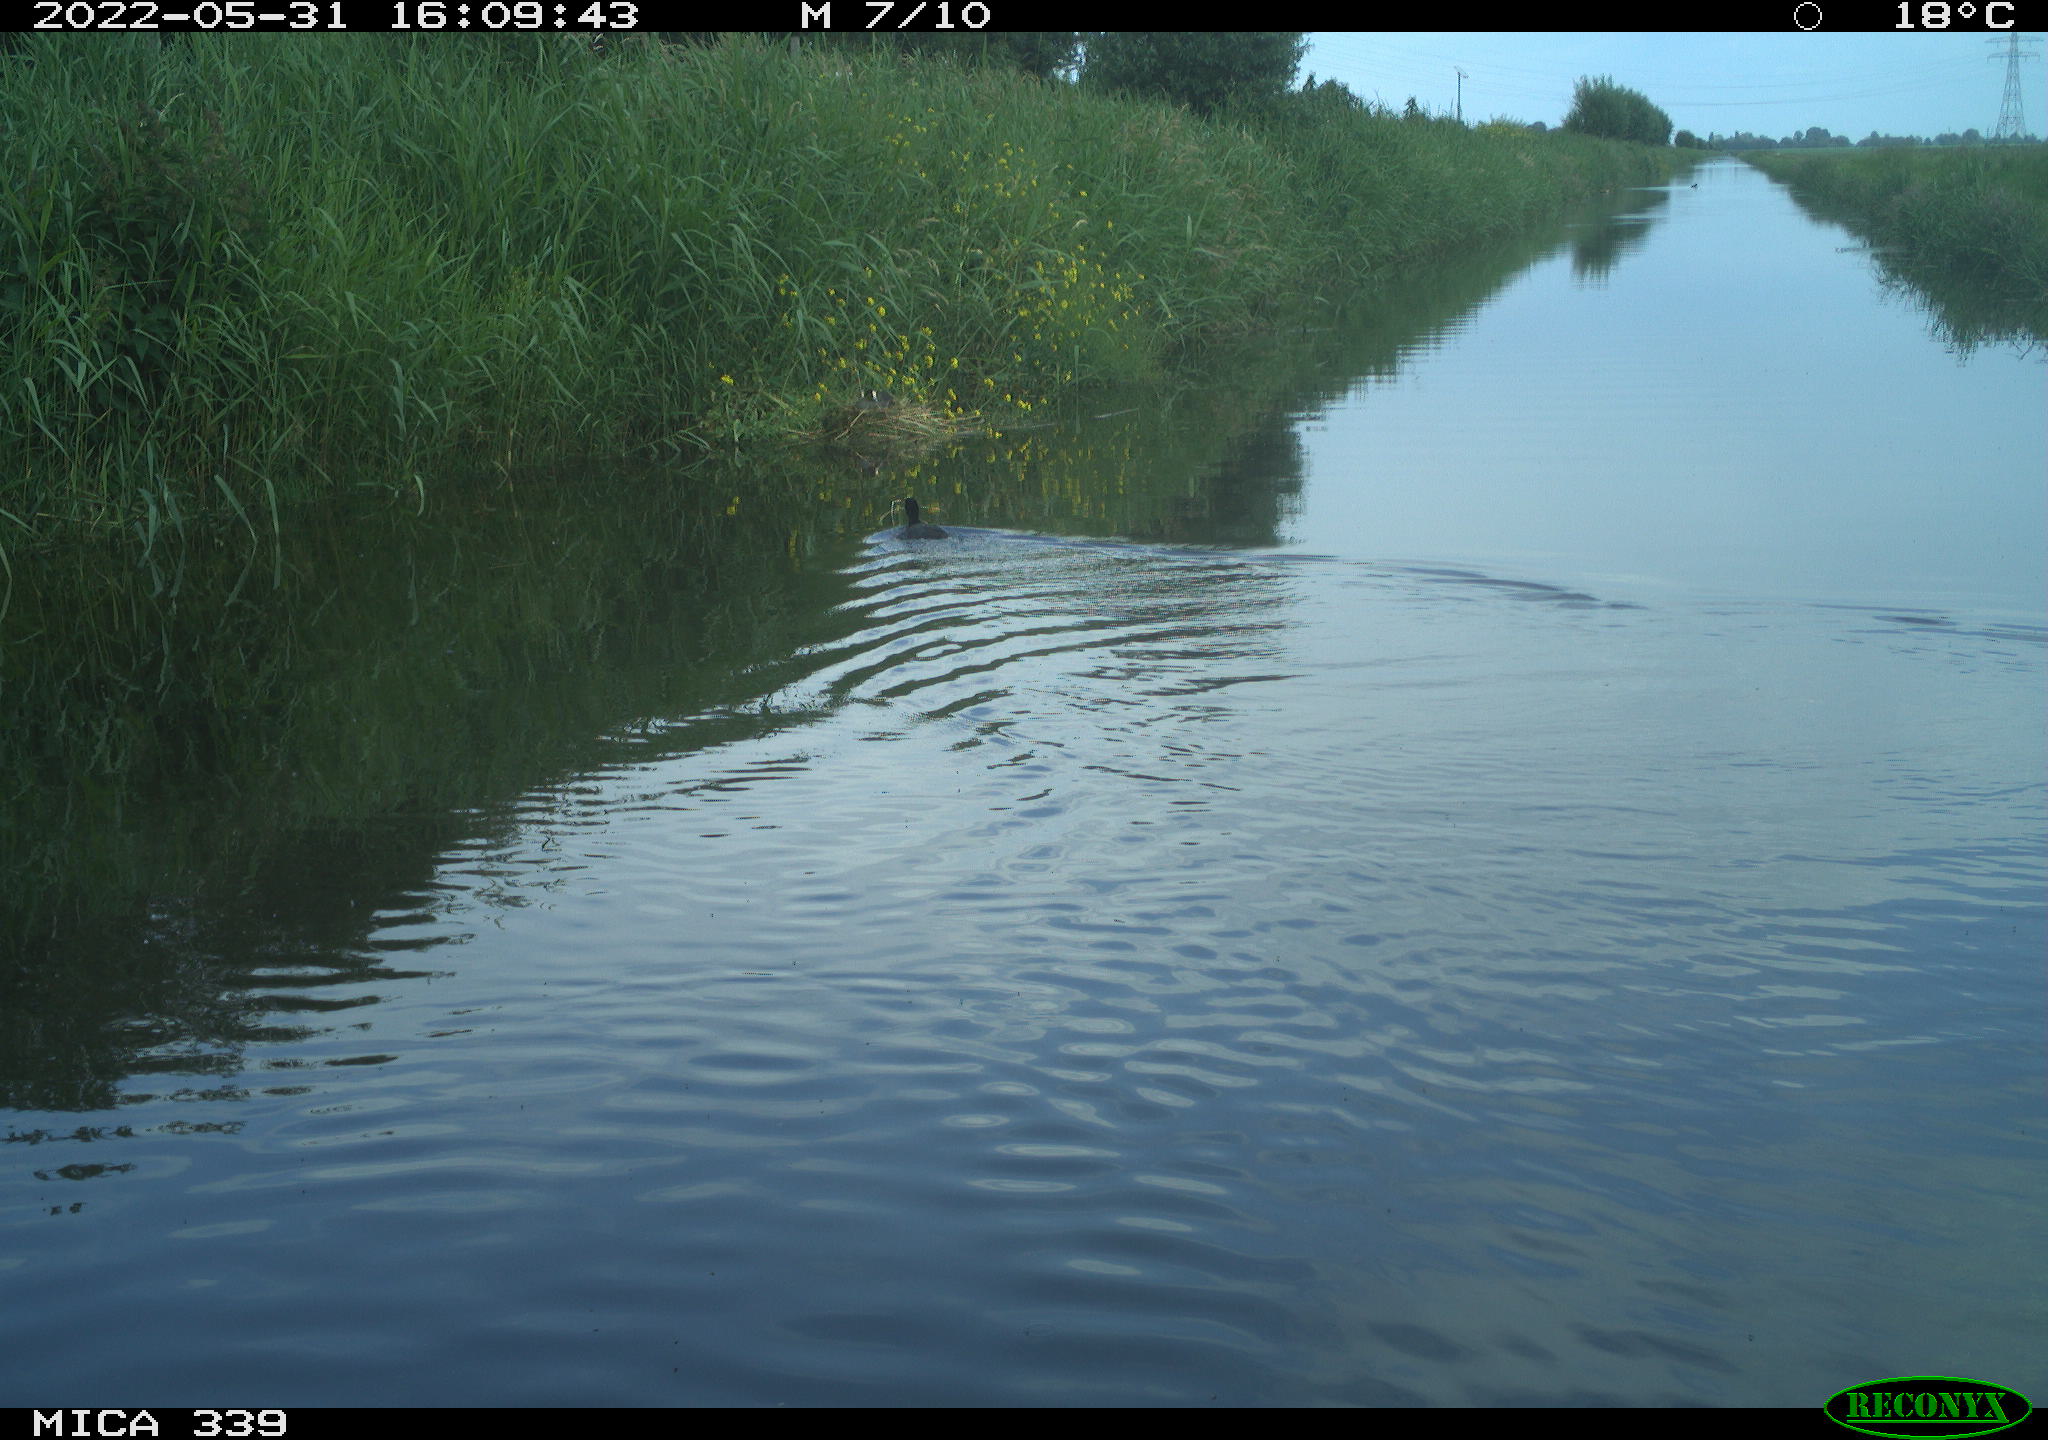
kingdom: Animalia
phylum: Chordata
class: Aves
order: Gruiformes
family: Rallidae
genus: Fulica
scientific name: Fulica atra
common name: Eurasian coot
